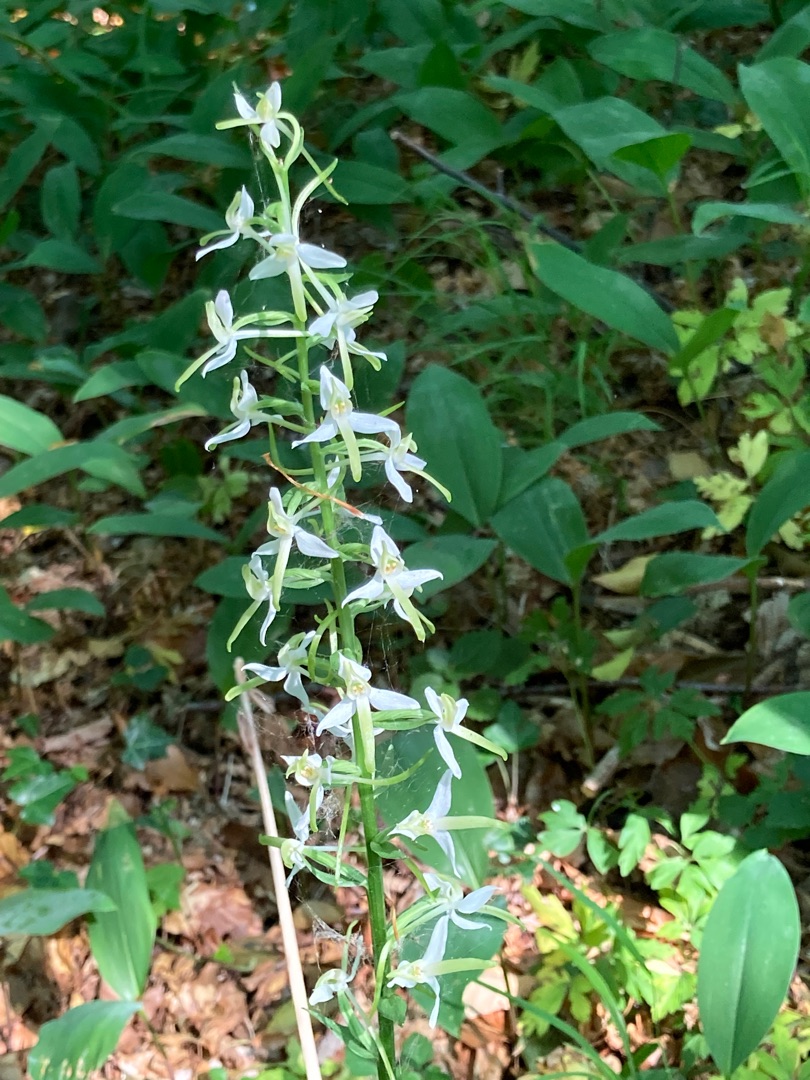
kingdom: Plantae
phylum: Tracheophyta
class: Liliopsida
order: Asparagales
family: Orchidaceae
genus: Platanthera
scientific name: Platanthera bifolia
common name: Langsporet gøgelilje
